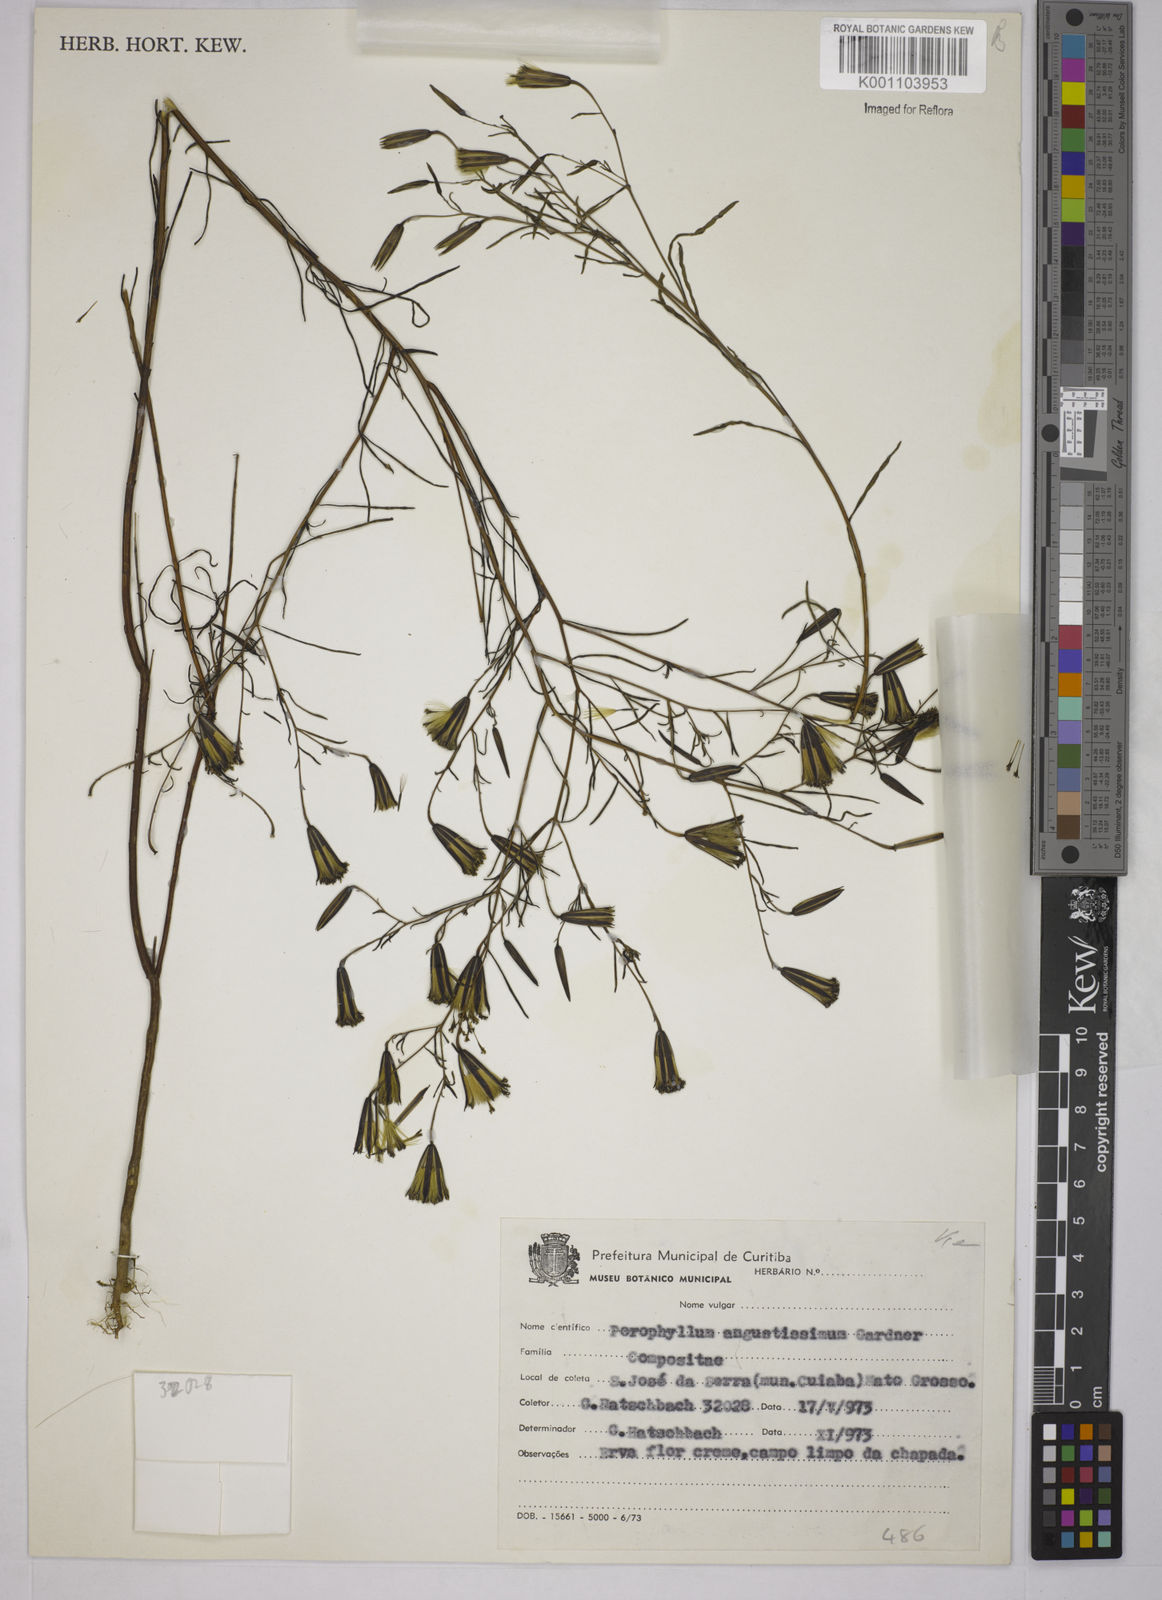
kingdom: Plantae
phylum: Tracheophyta
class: Magnoliopsida
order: Asterales
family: Asteraceae
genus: Porophyllum
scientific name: Porophyllum angustissimum
